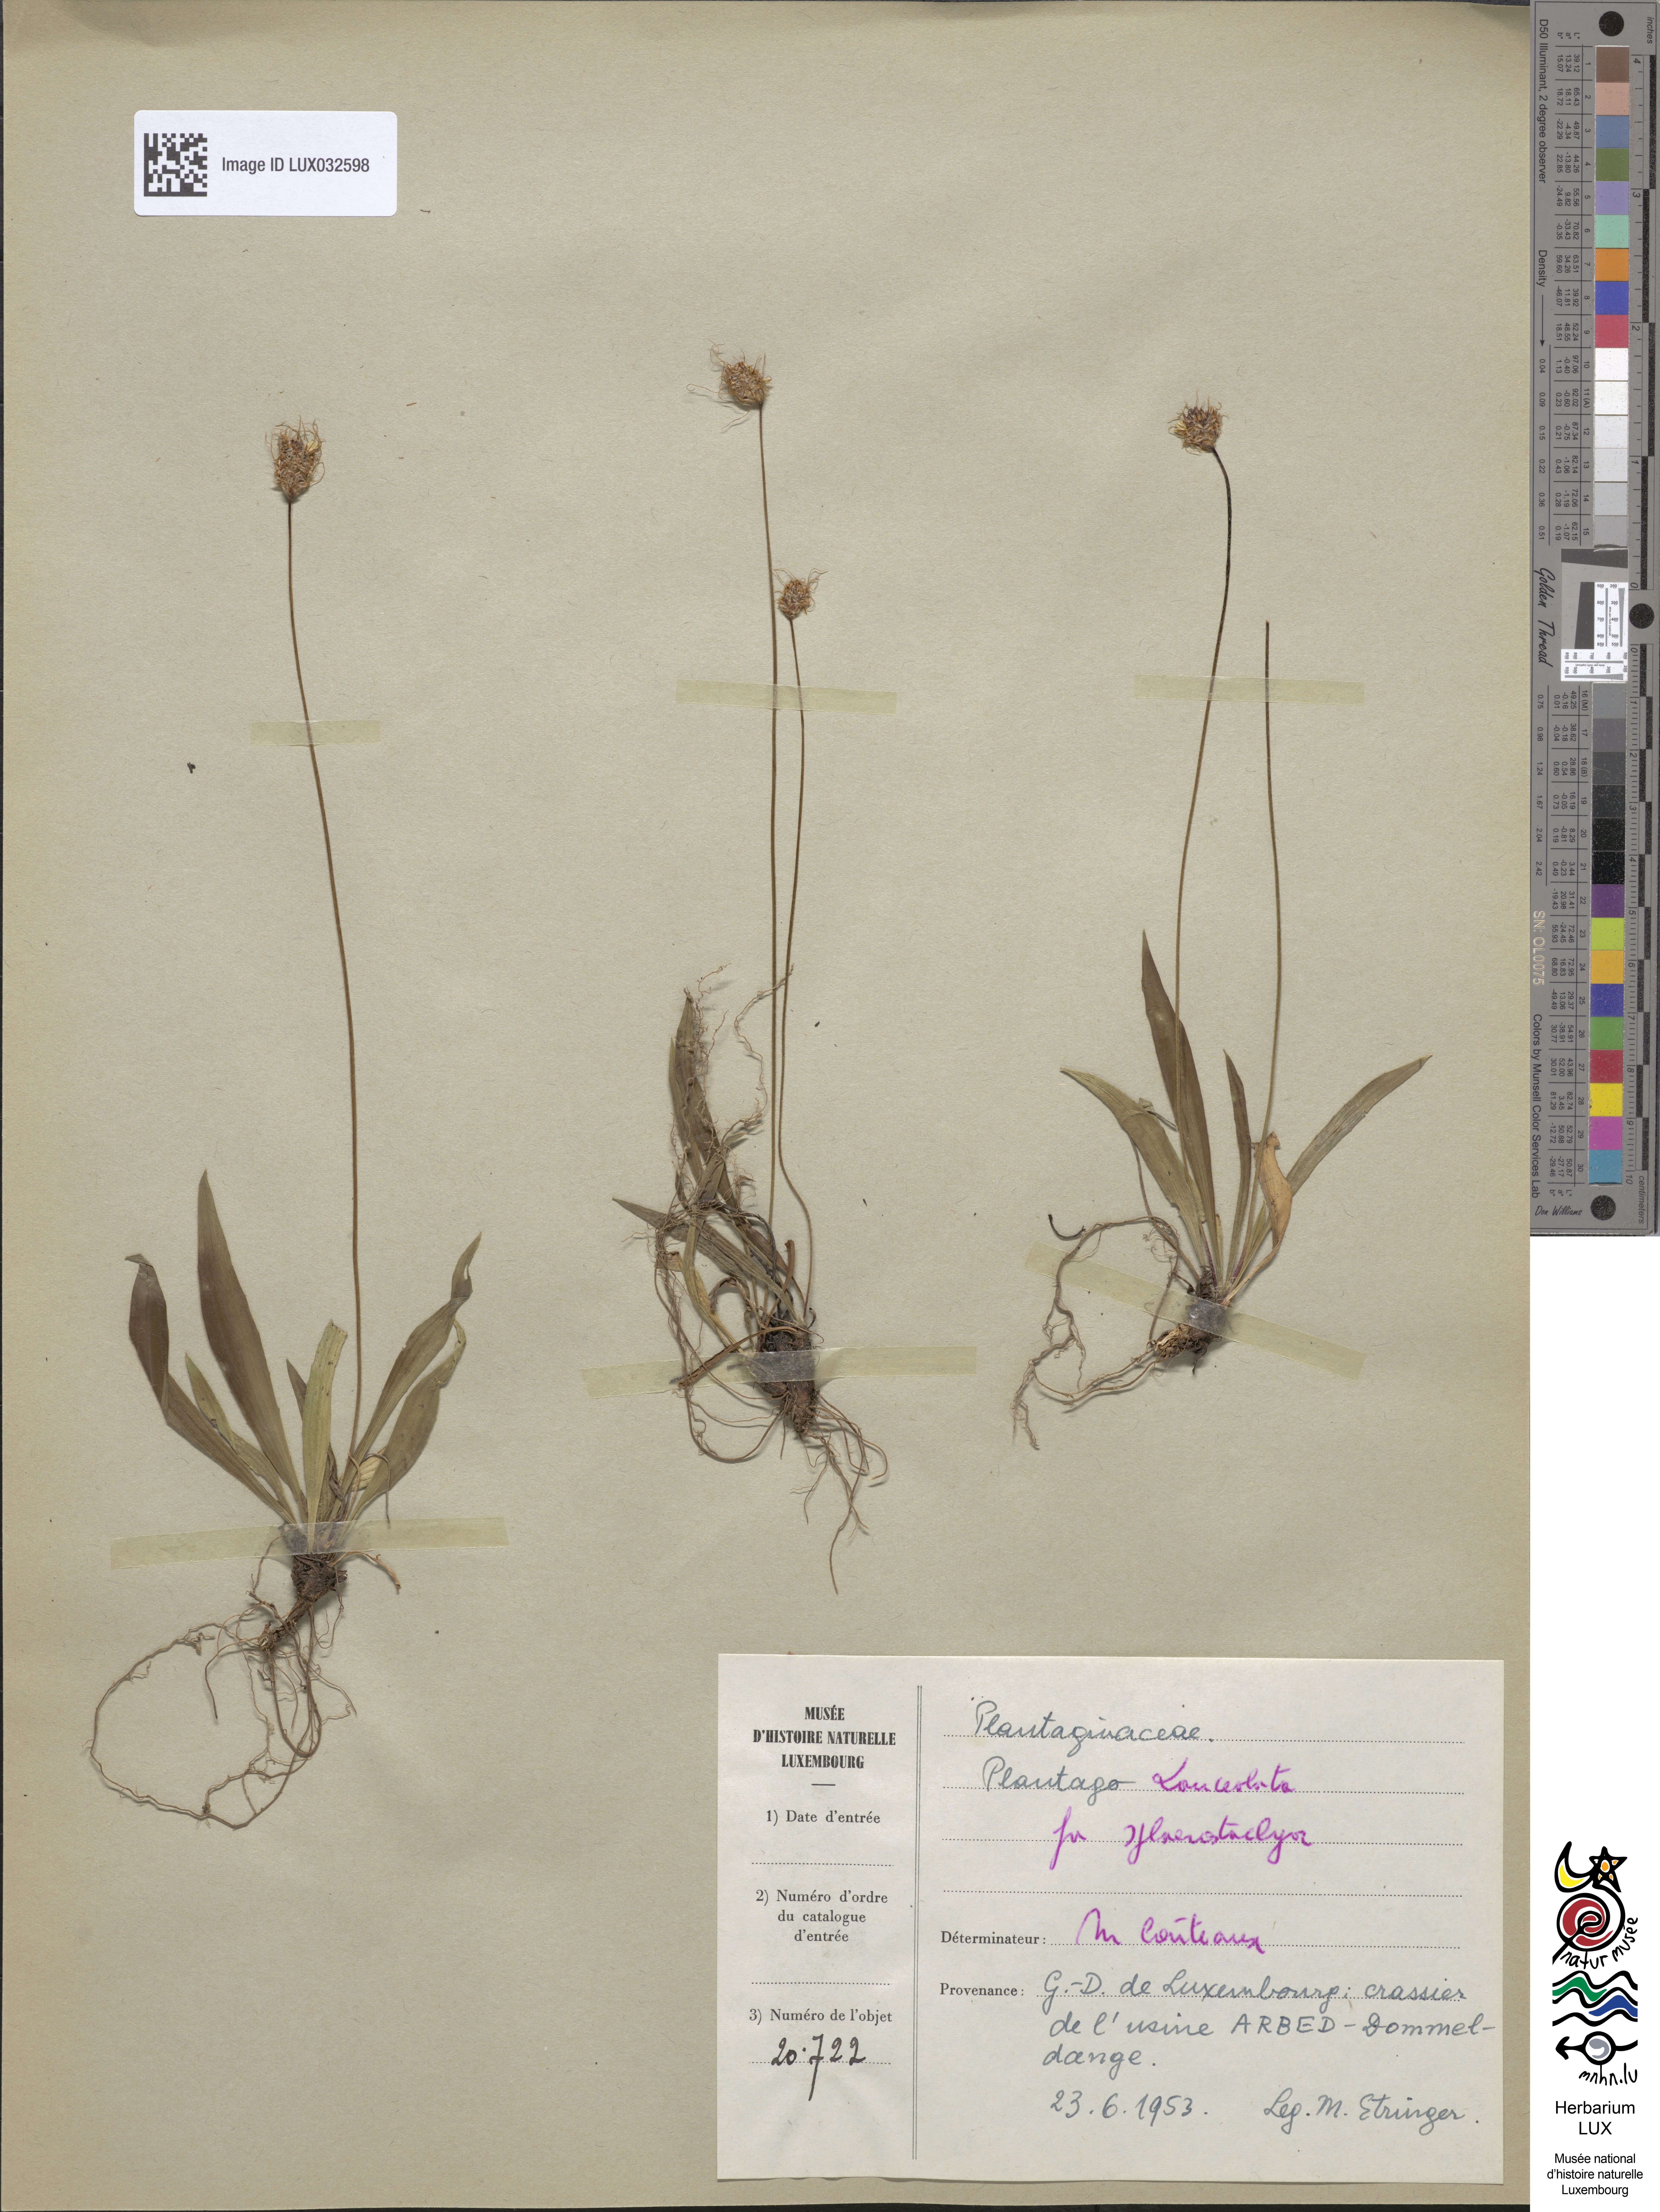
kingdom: Plantae
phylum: Tracheophyta
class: Magnoliopsida
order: Lamiales
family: Plantaginaceae
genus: Plantago
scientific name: Plantago lanceolata
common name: Ribwort plantain
